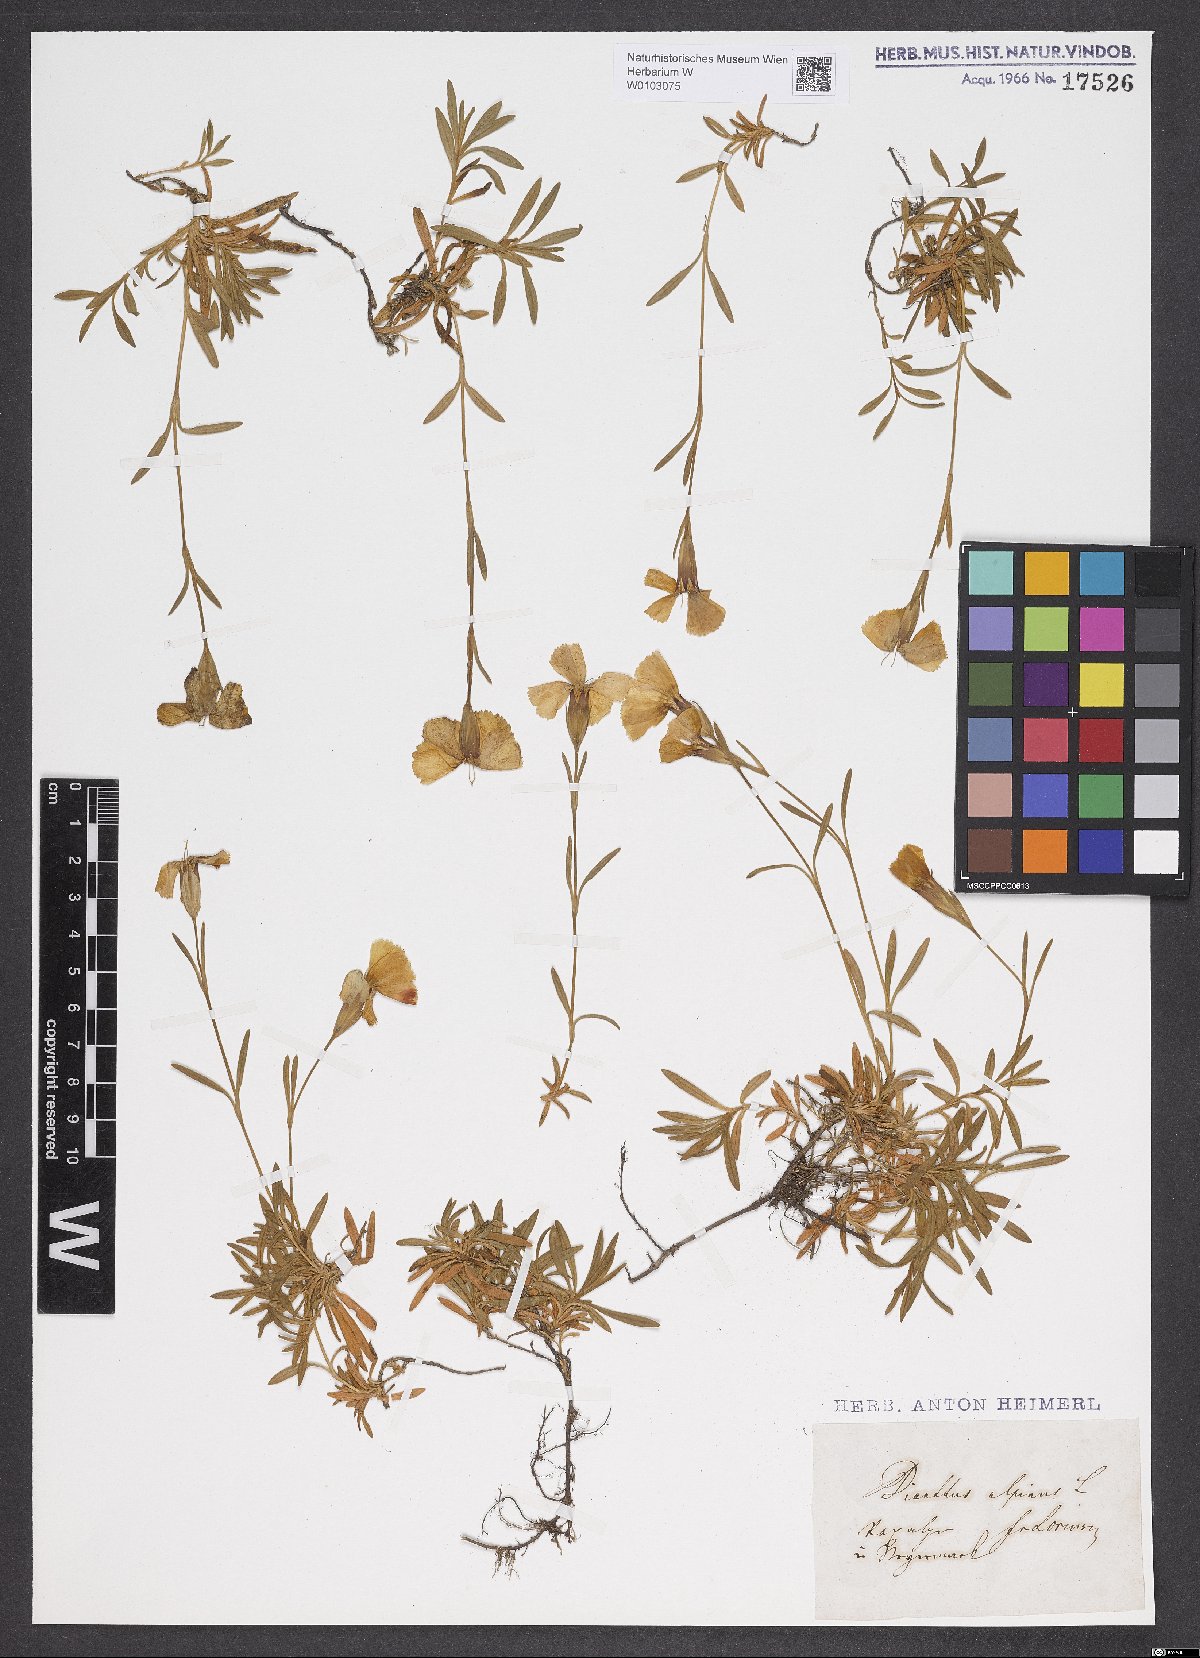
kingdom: Plantae
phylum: Tracheophyta
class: Magnoliopsida
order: Caryophyllales
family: Caryophyllaceae
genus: Dianthus
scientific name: Dianthus alpinus
